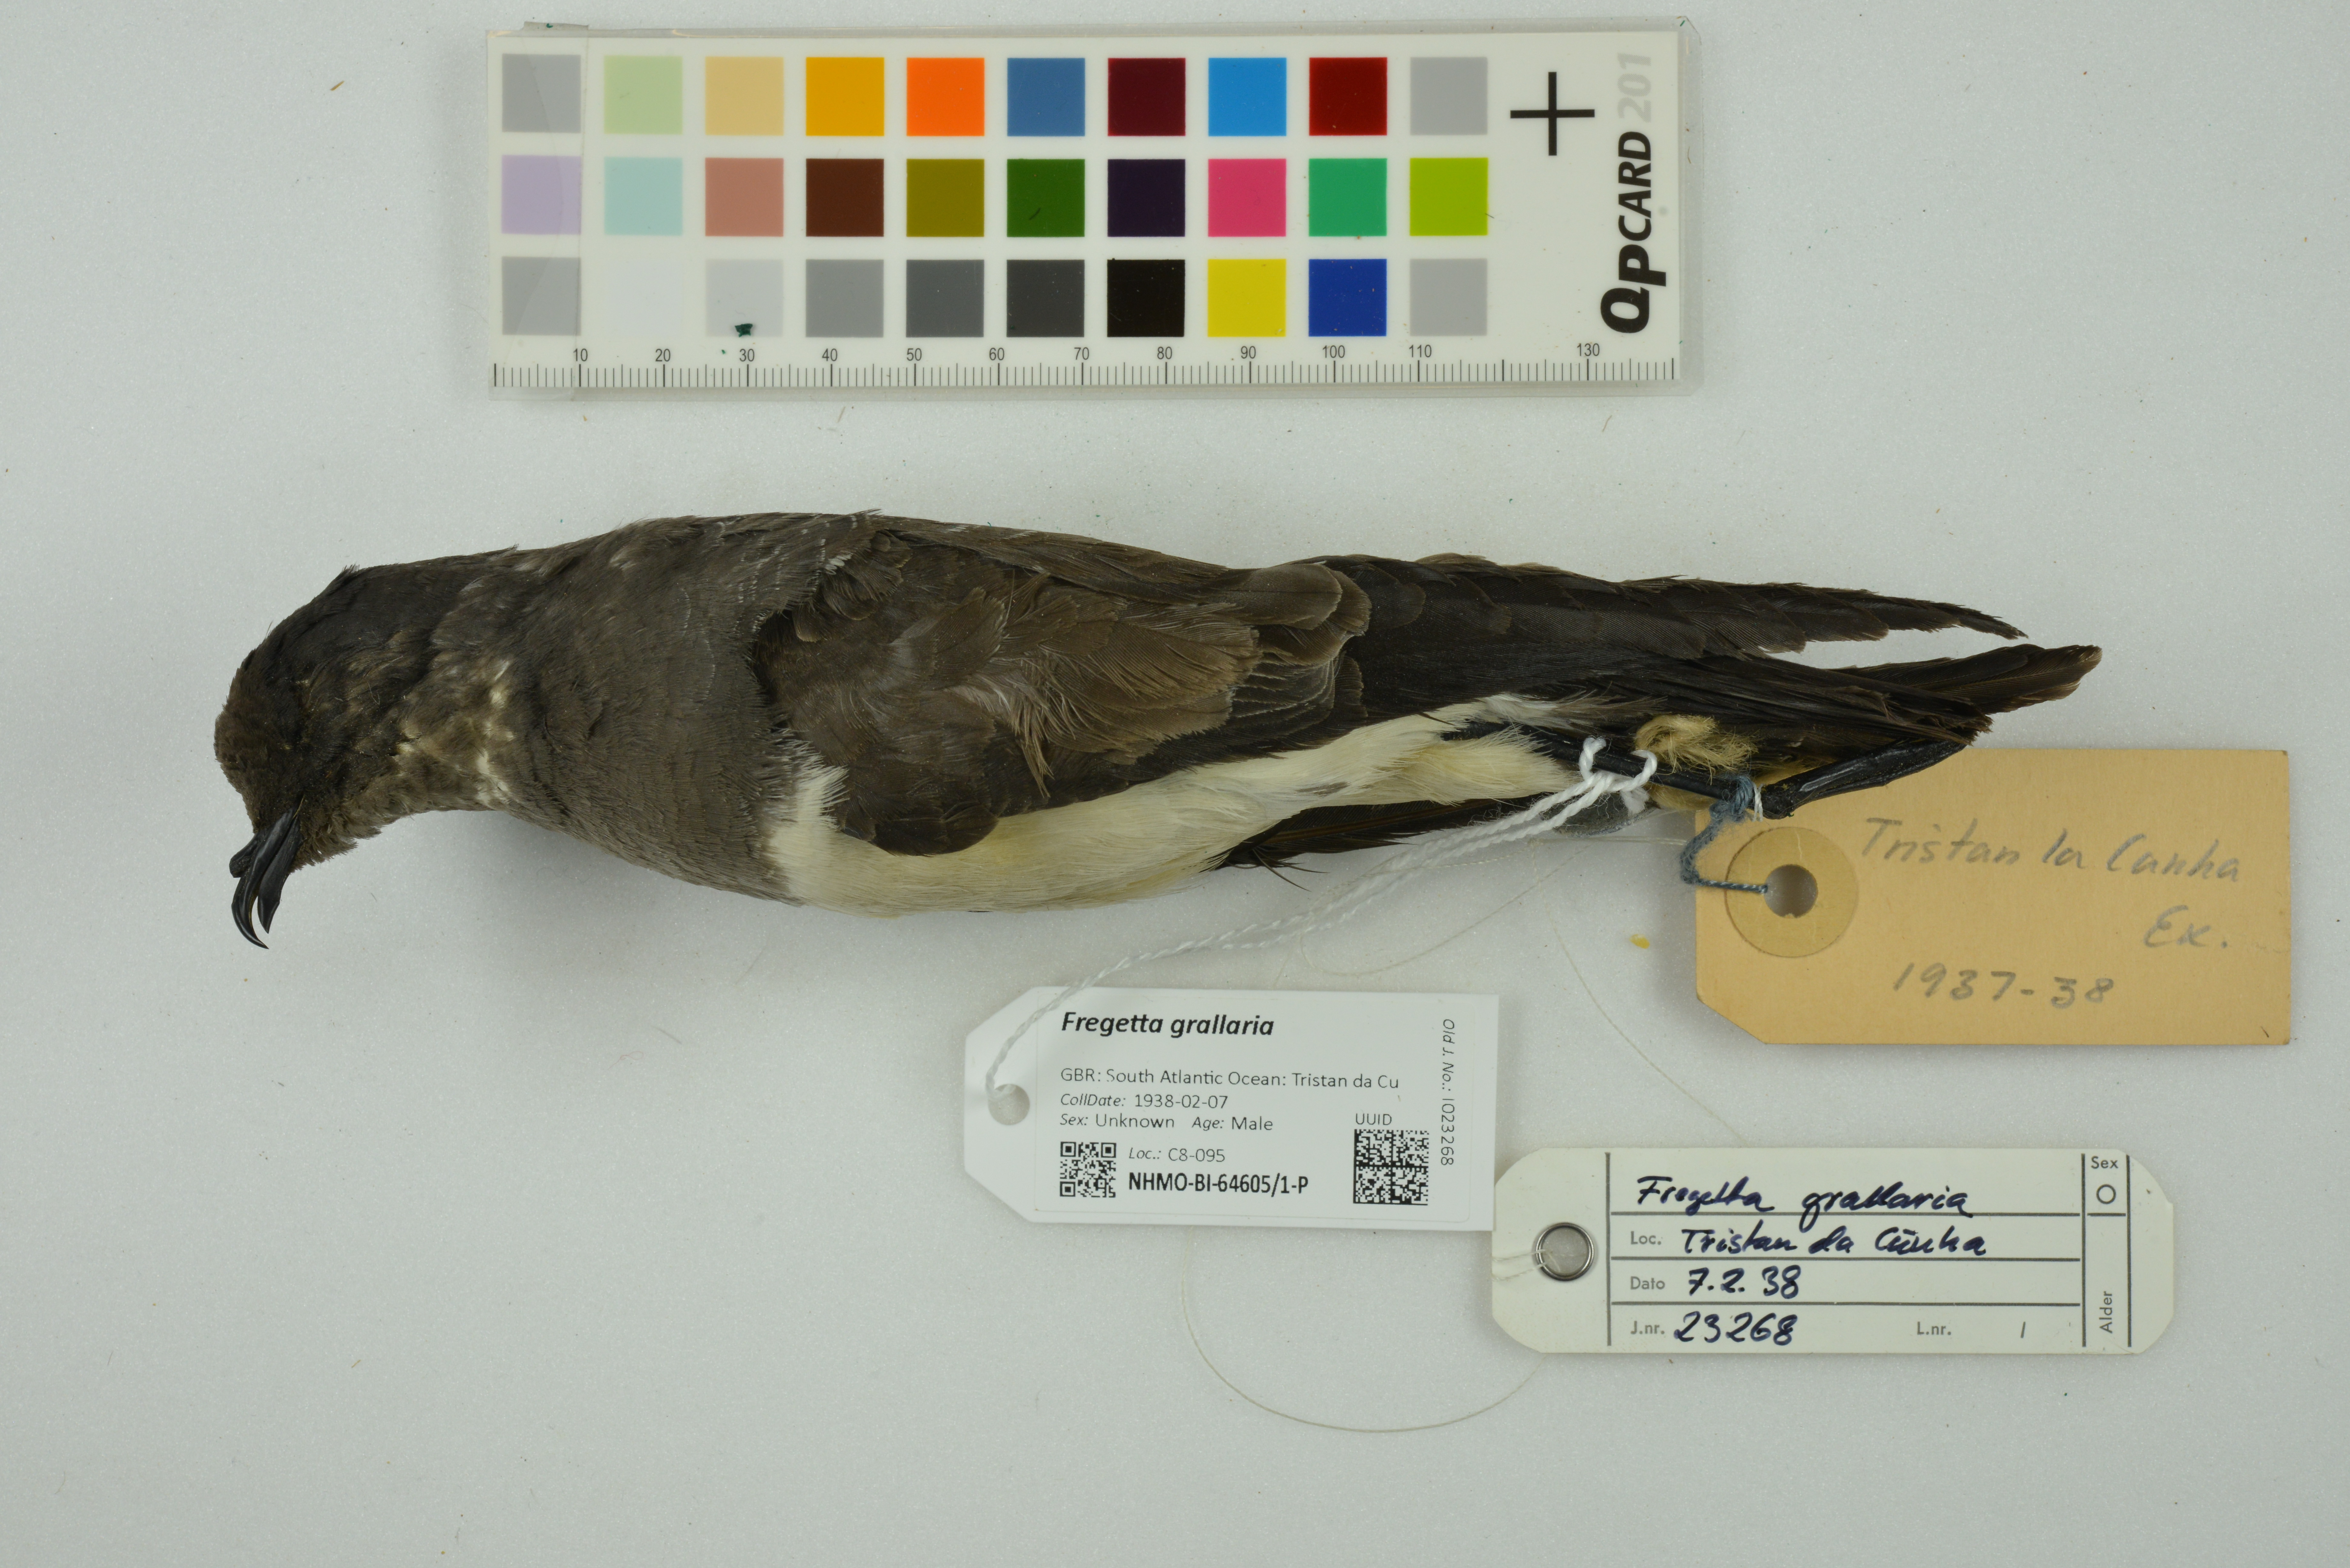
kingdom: Animalia
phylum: Chordata
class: Aves
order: Procellariiformes
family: Hydrobatidae
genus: Fregetta
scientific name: Fregetta grallaria
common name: White-bellied storm-petrel
